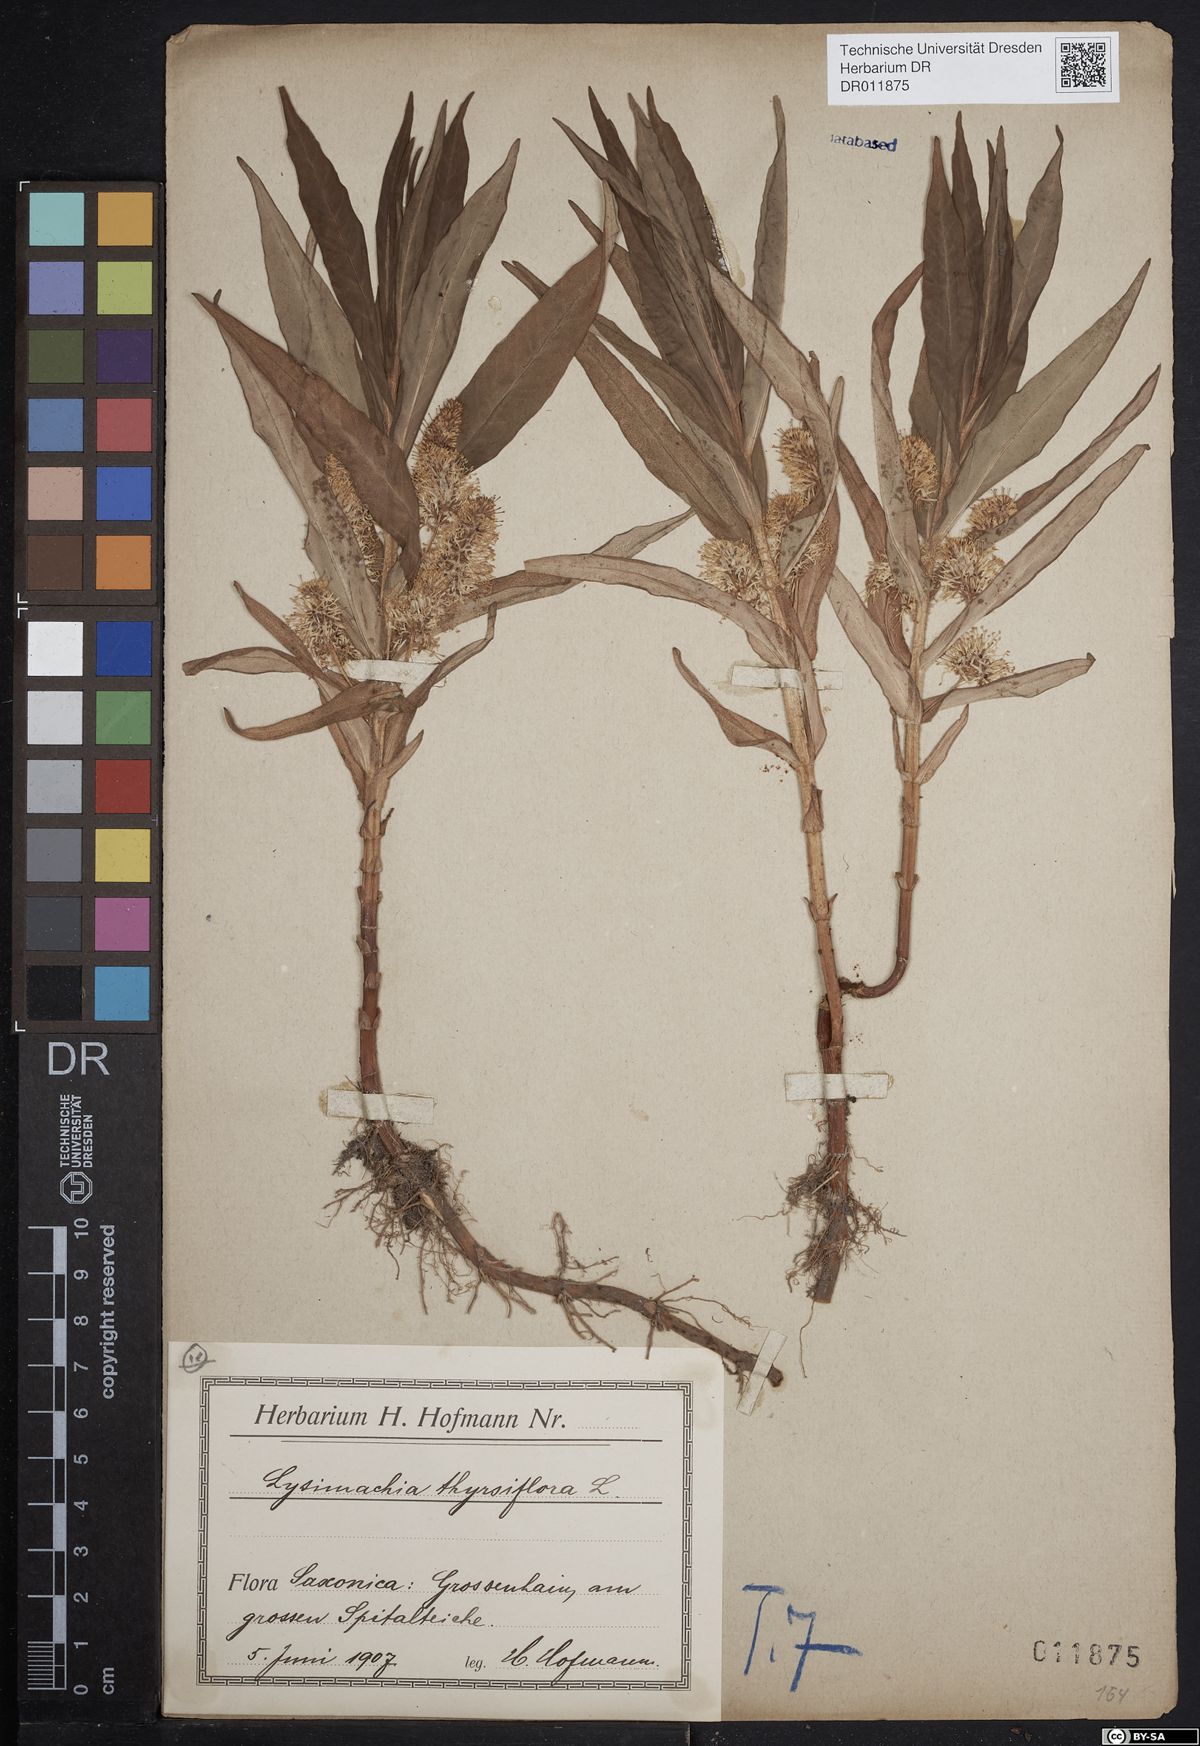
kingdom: Plantae
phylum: Tracheophyta
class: Magnoliopsida
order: Ericales
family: Primulaceae
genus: Lysimachia
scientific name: Lysimachia thyrsiflora
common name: Tufted loosestrife
